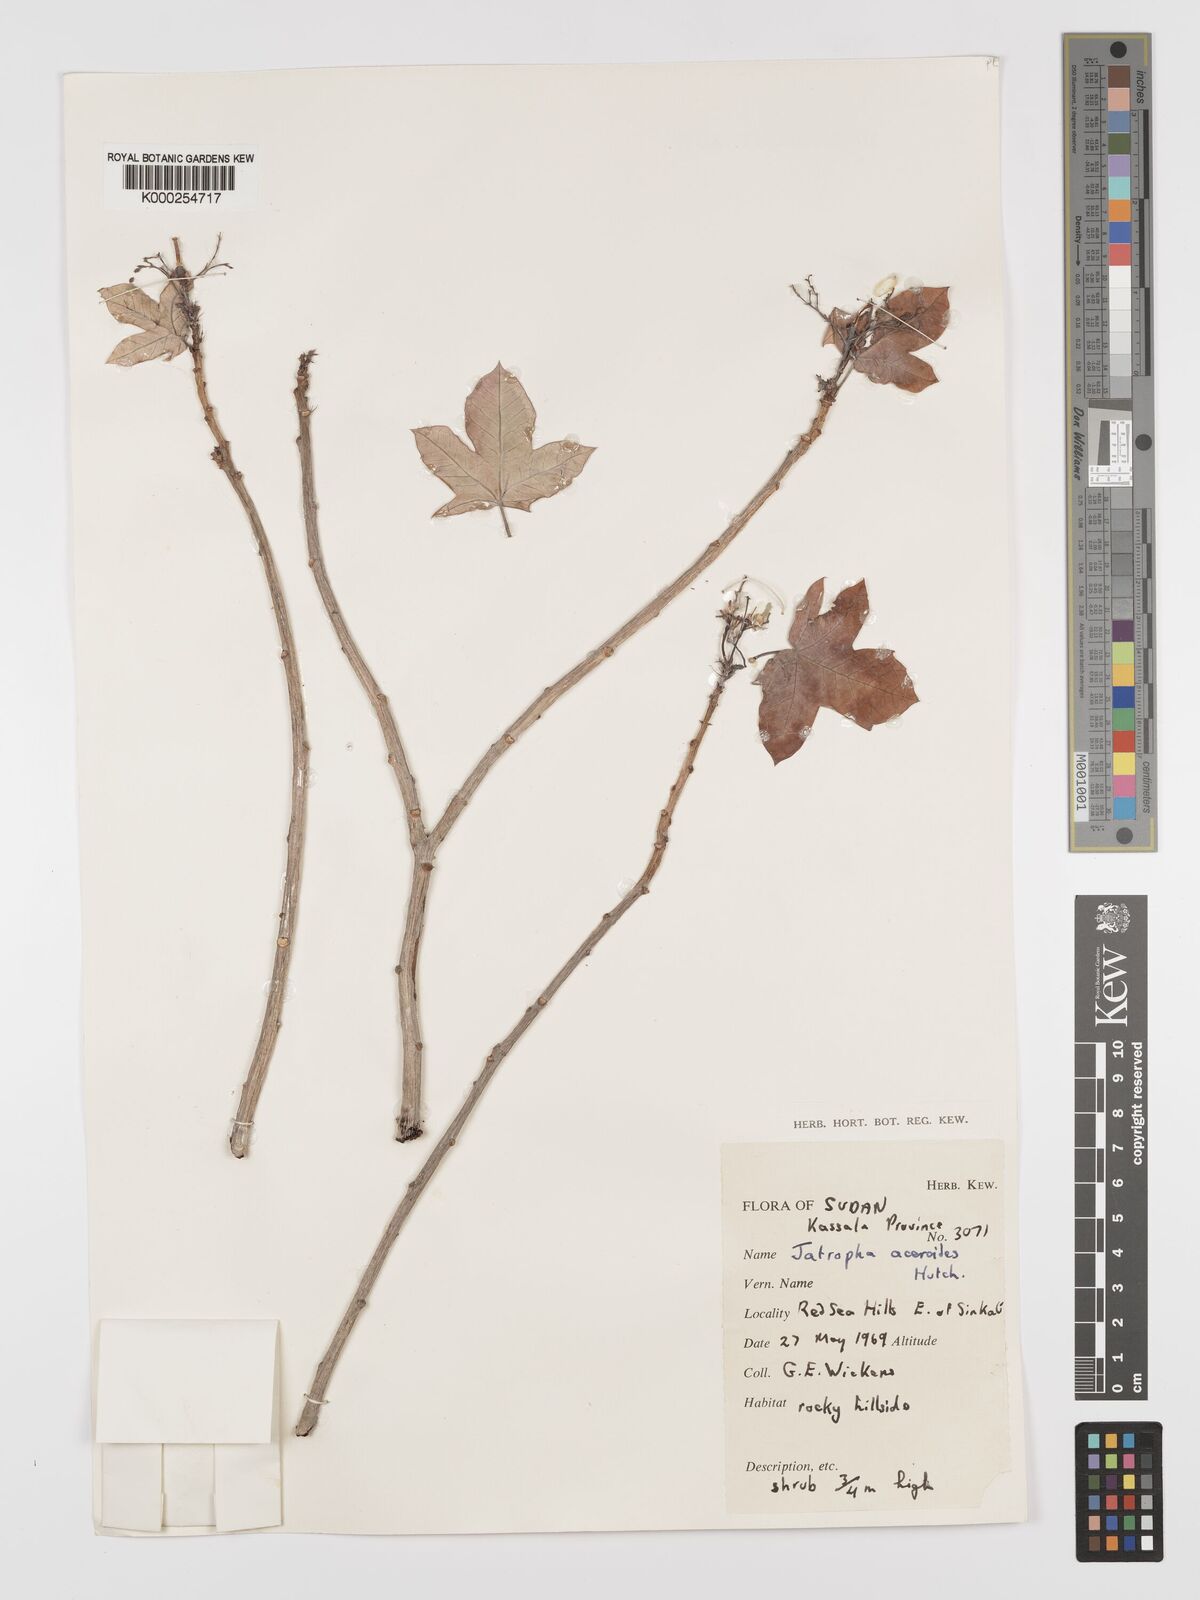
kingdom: Plantae
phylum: Tracheophyta
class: Magnoliopsida
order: Malpighiales
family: Euphorbiaceae
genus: Jatropha
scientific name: Jatropha aceroides
